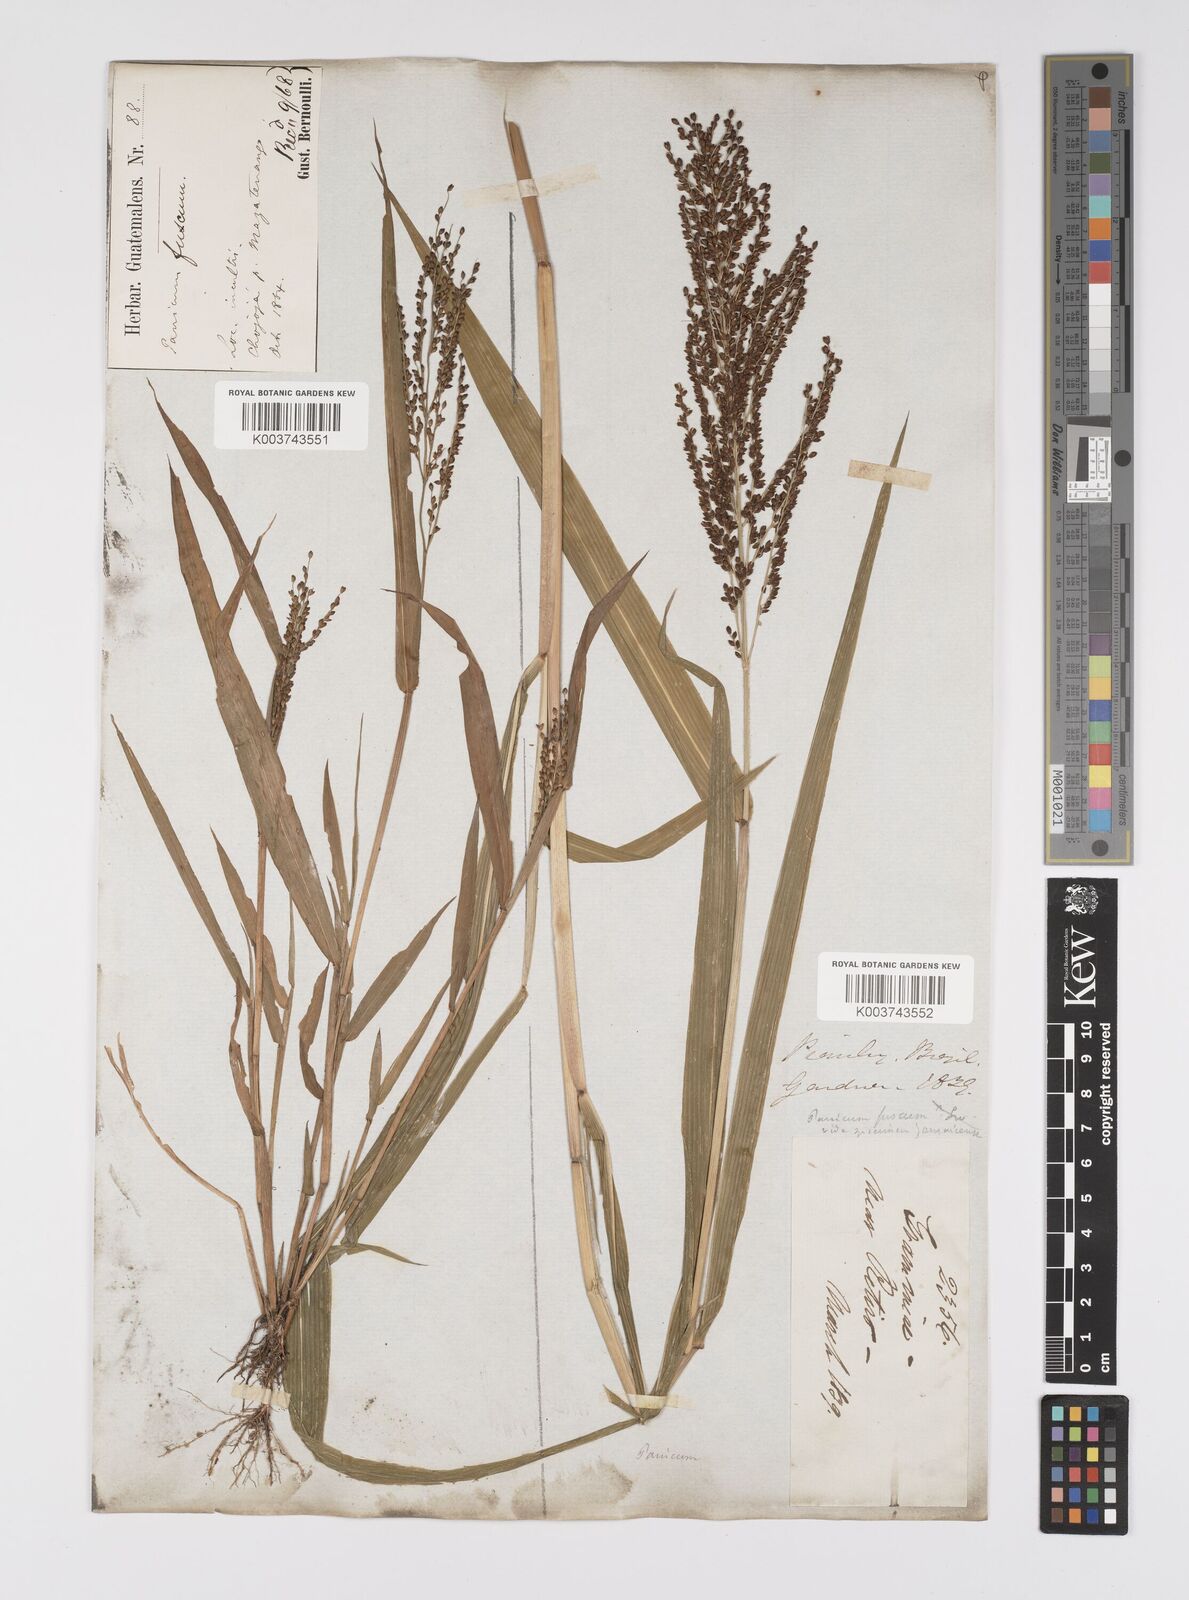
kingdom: Plantae
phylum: Tracheophyta
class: Liliopsida
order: Poales
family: Poaceae
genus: Urochloa
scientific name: Urochloa fusca
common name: Browntop signal grass
